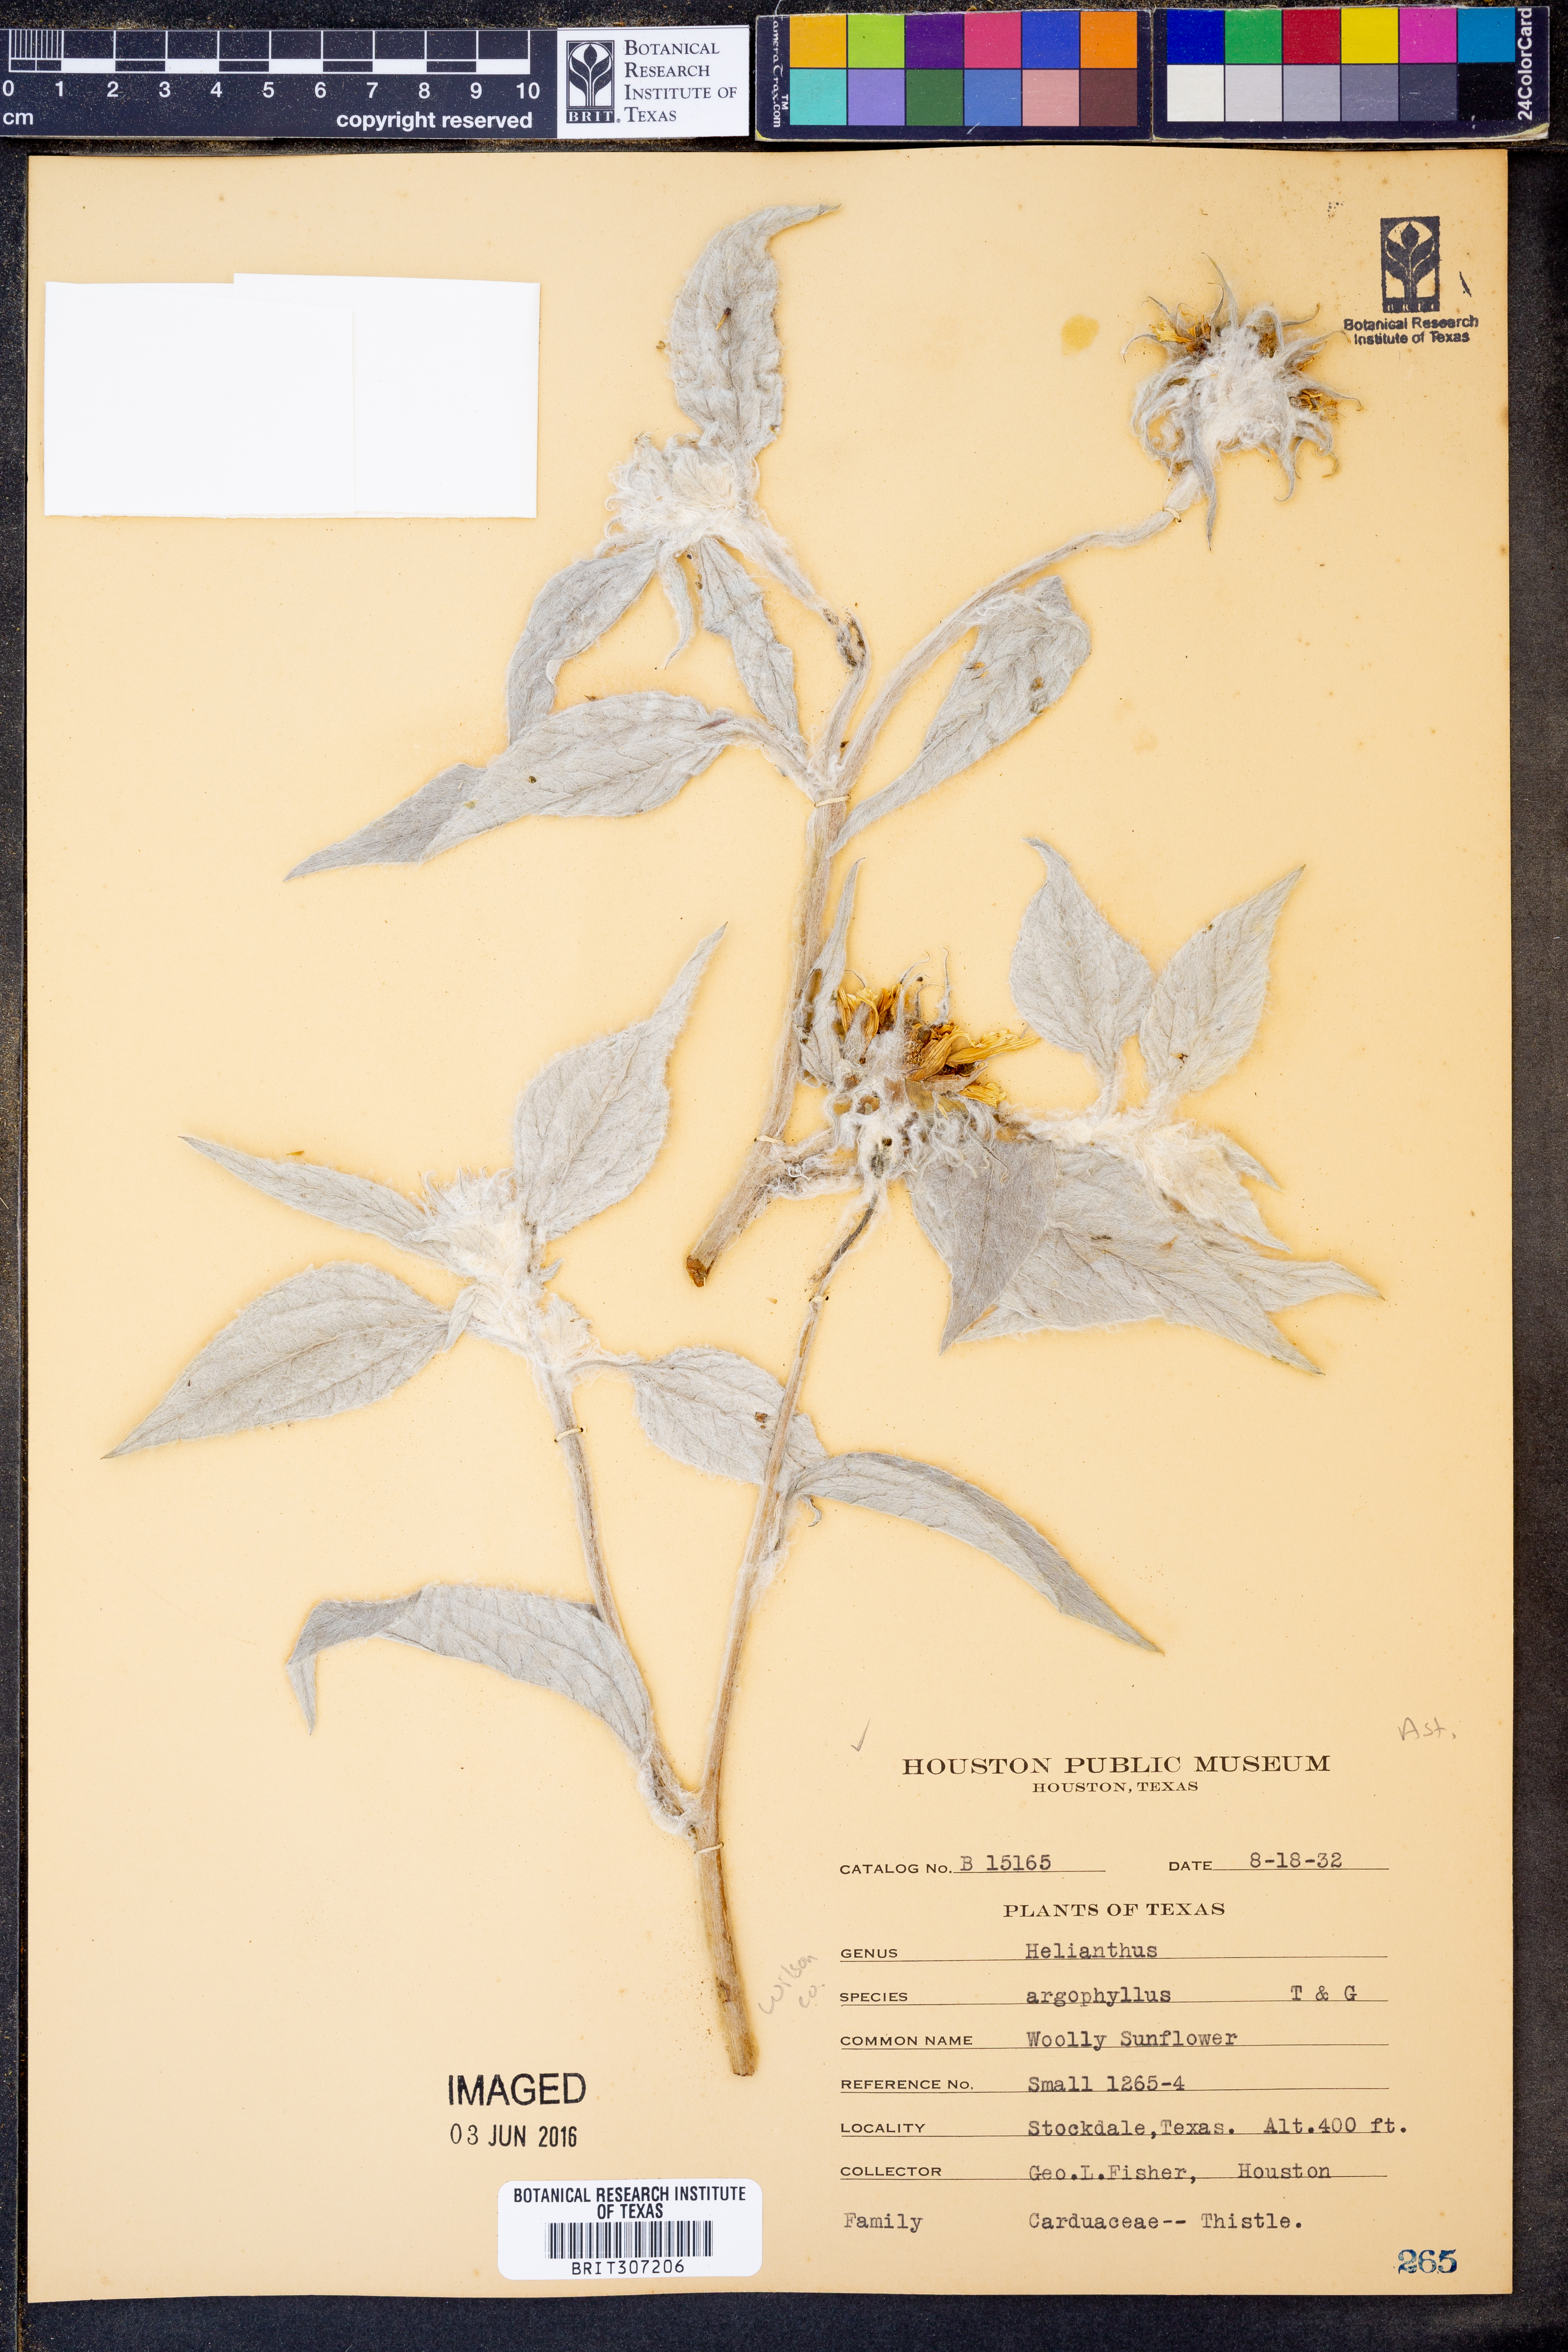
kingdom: Plantae
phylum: Tracheophyta
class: Magnoliopsida
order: Asterales
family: Asteraceae
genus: Helianthus
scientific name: Helianthus argophyllus
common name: Silverleaf sunflower
